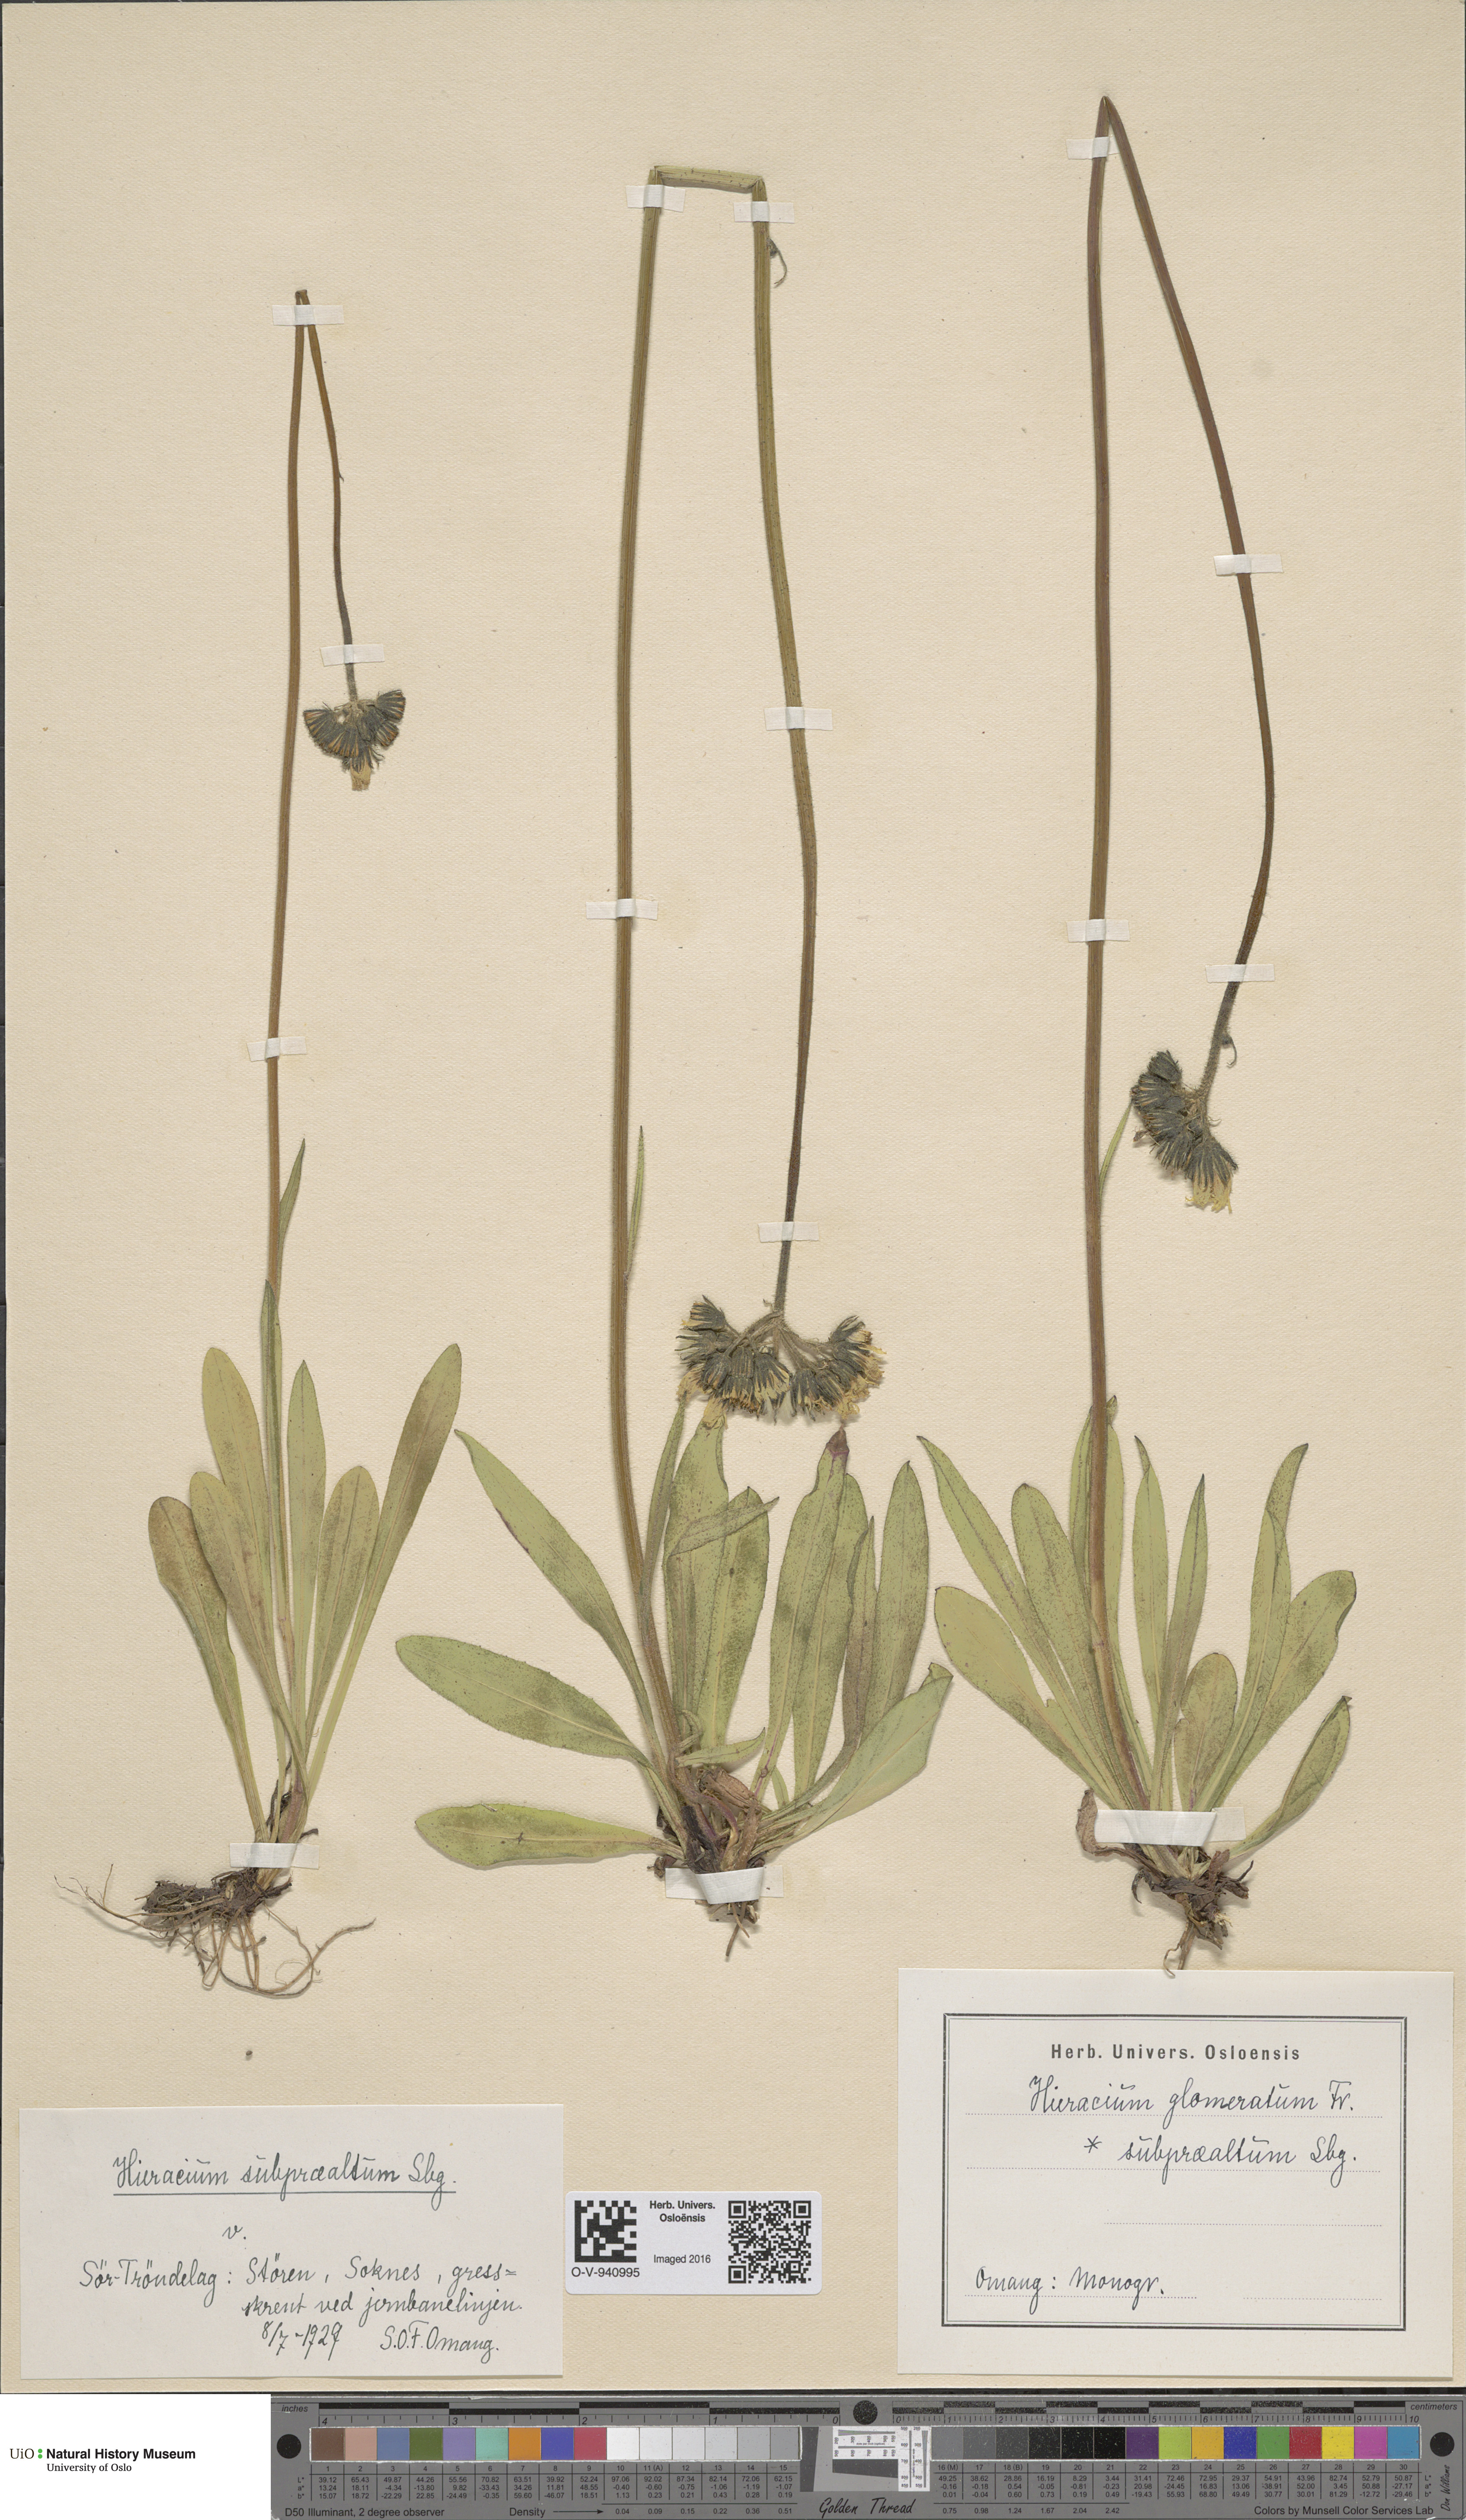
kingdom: Plantae
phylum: Tracheophyta
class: Magnoliopsida
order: Asterales
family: Asteraceae
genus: Pilosella
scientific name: Pilosella glomerata
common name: Queen devil hawkweed
